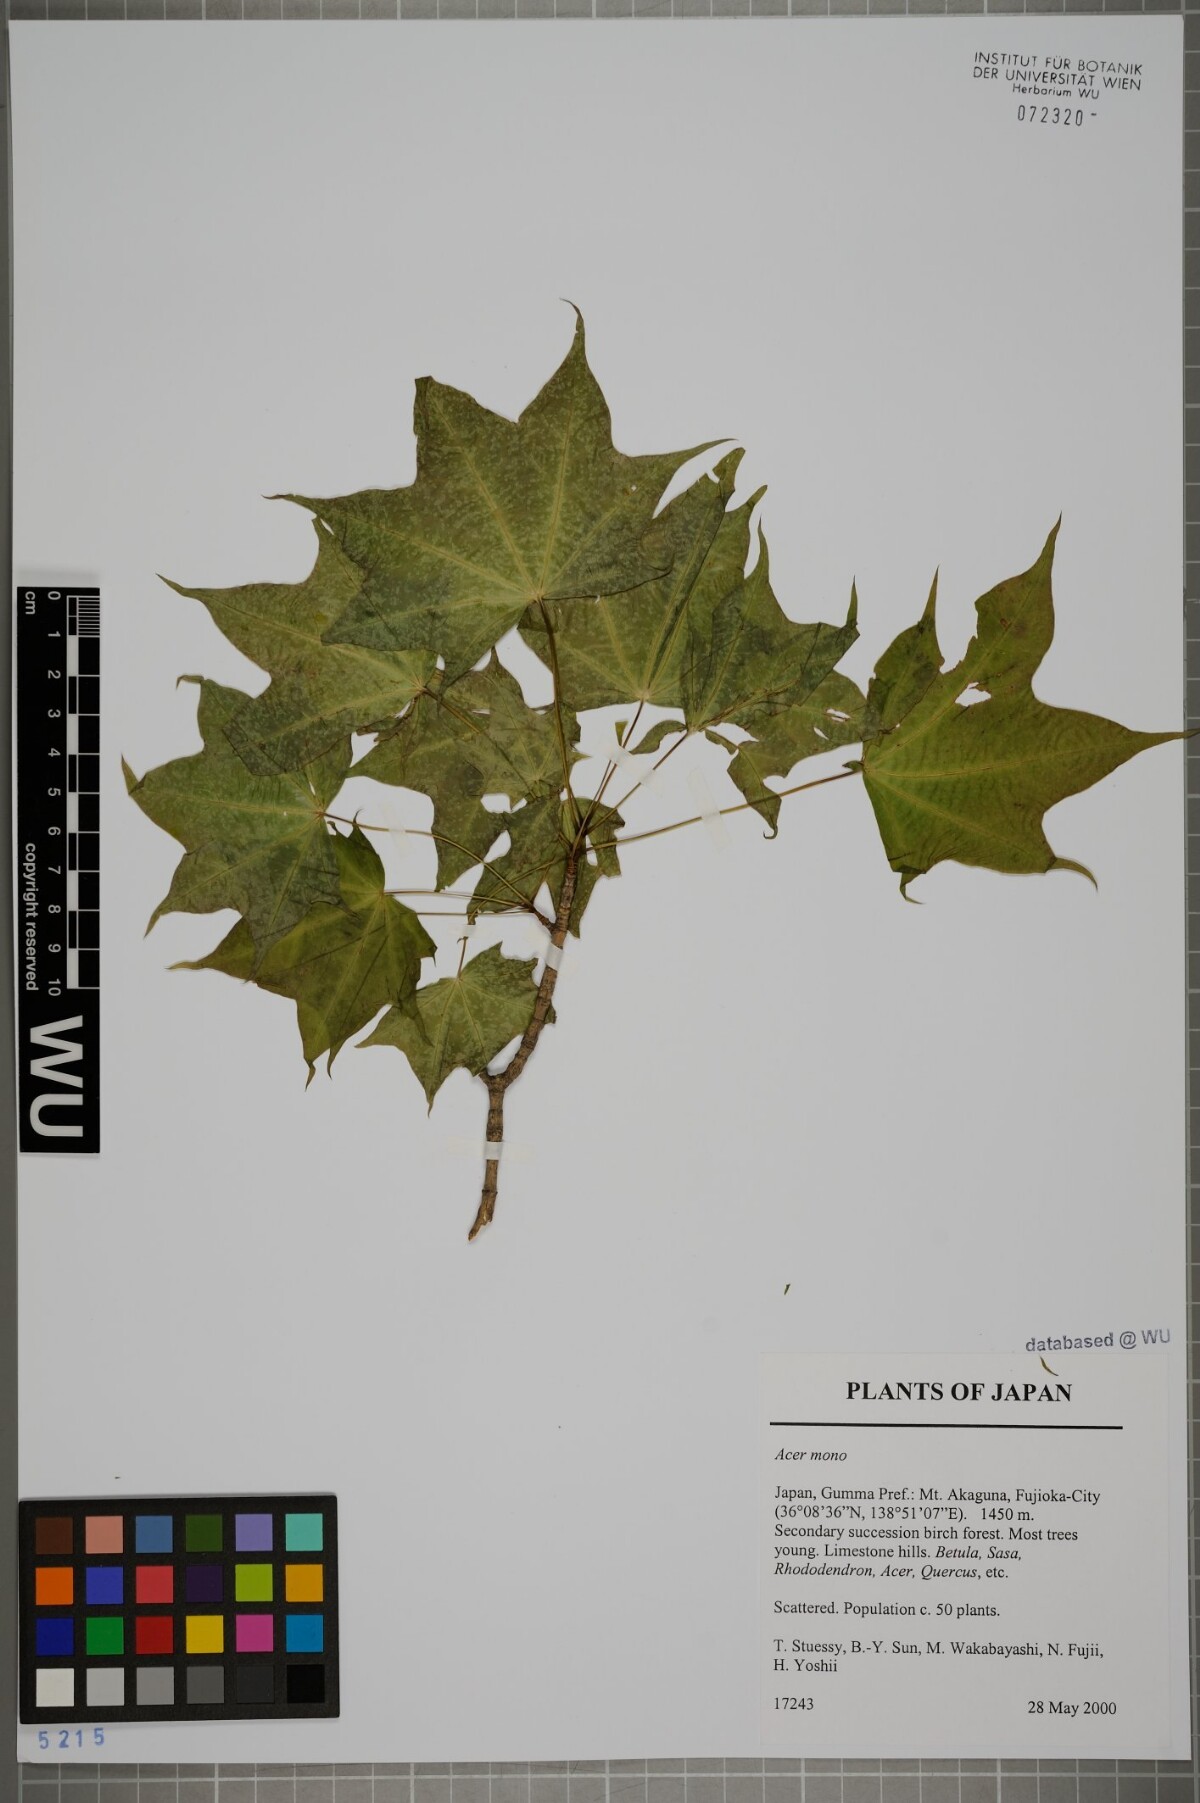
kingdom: Plantae
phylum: Tracheophyta
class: Magnoliopsida
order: Sapindales
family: Sapindaceae
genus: Acer
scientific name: Acer pictum
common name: The painted maple
